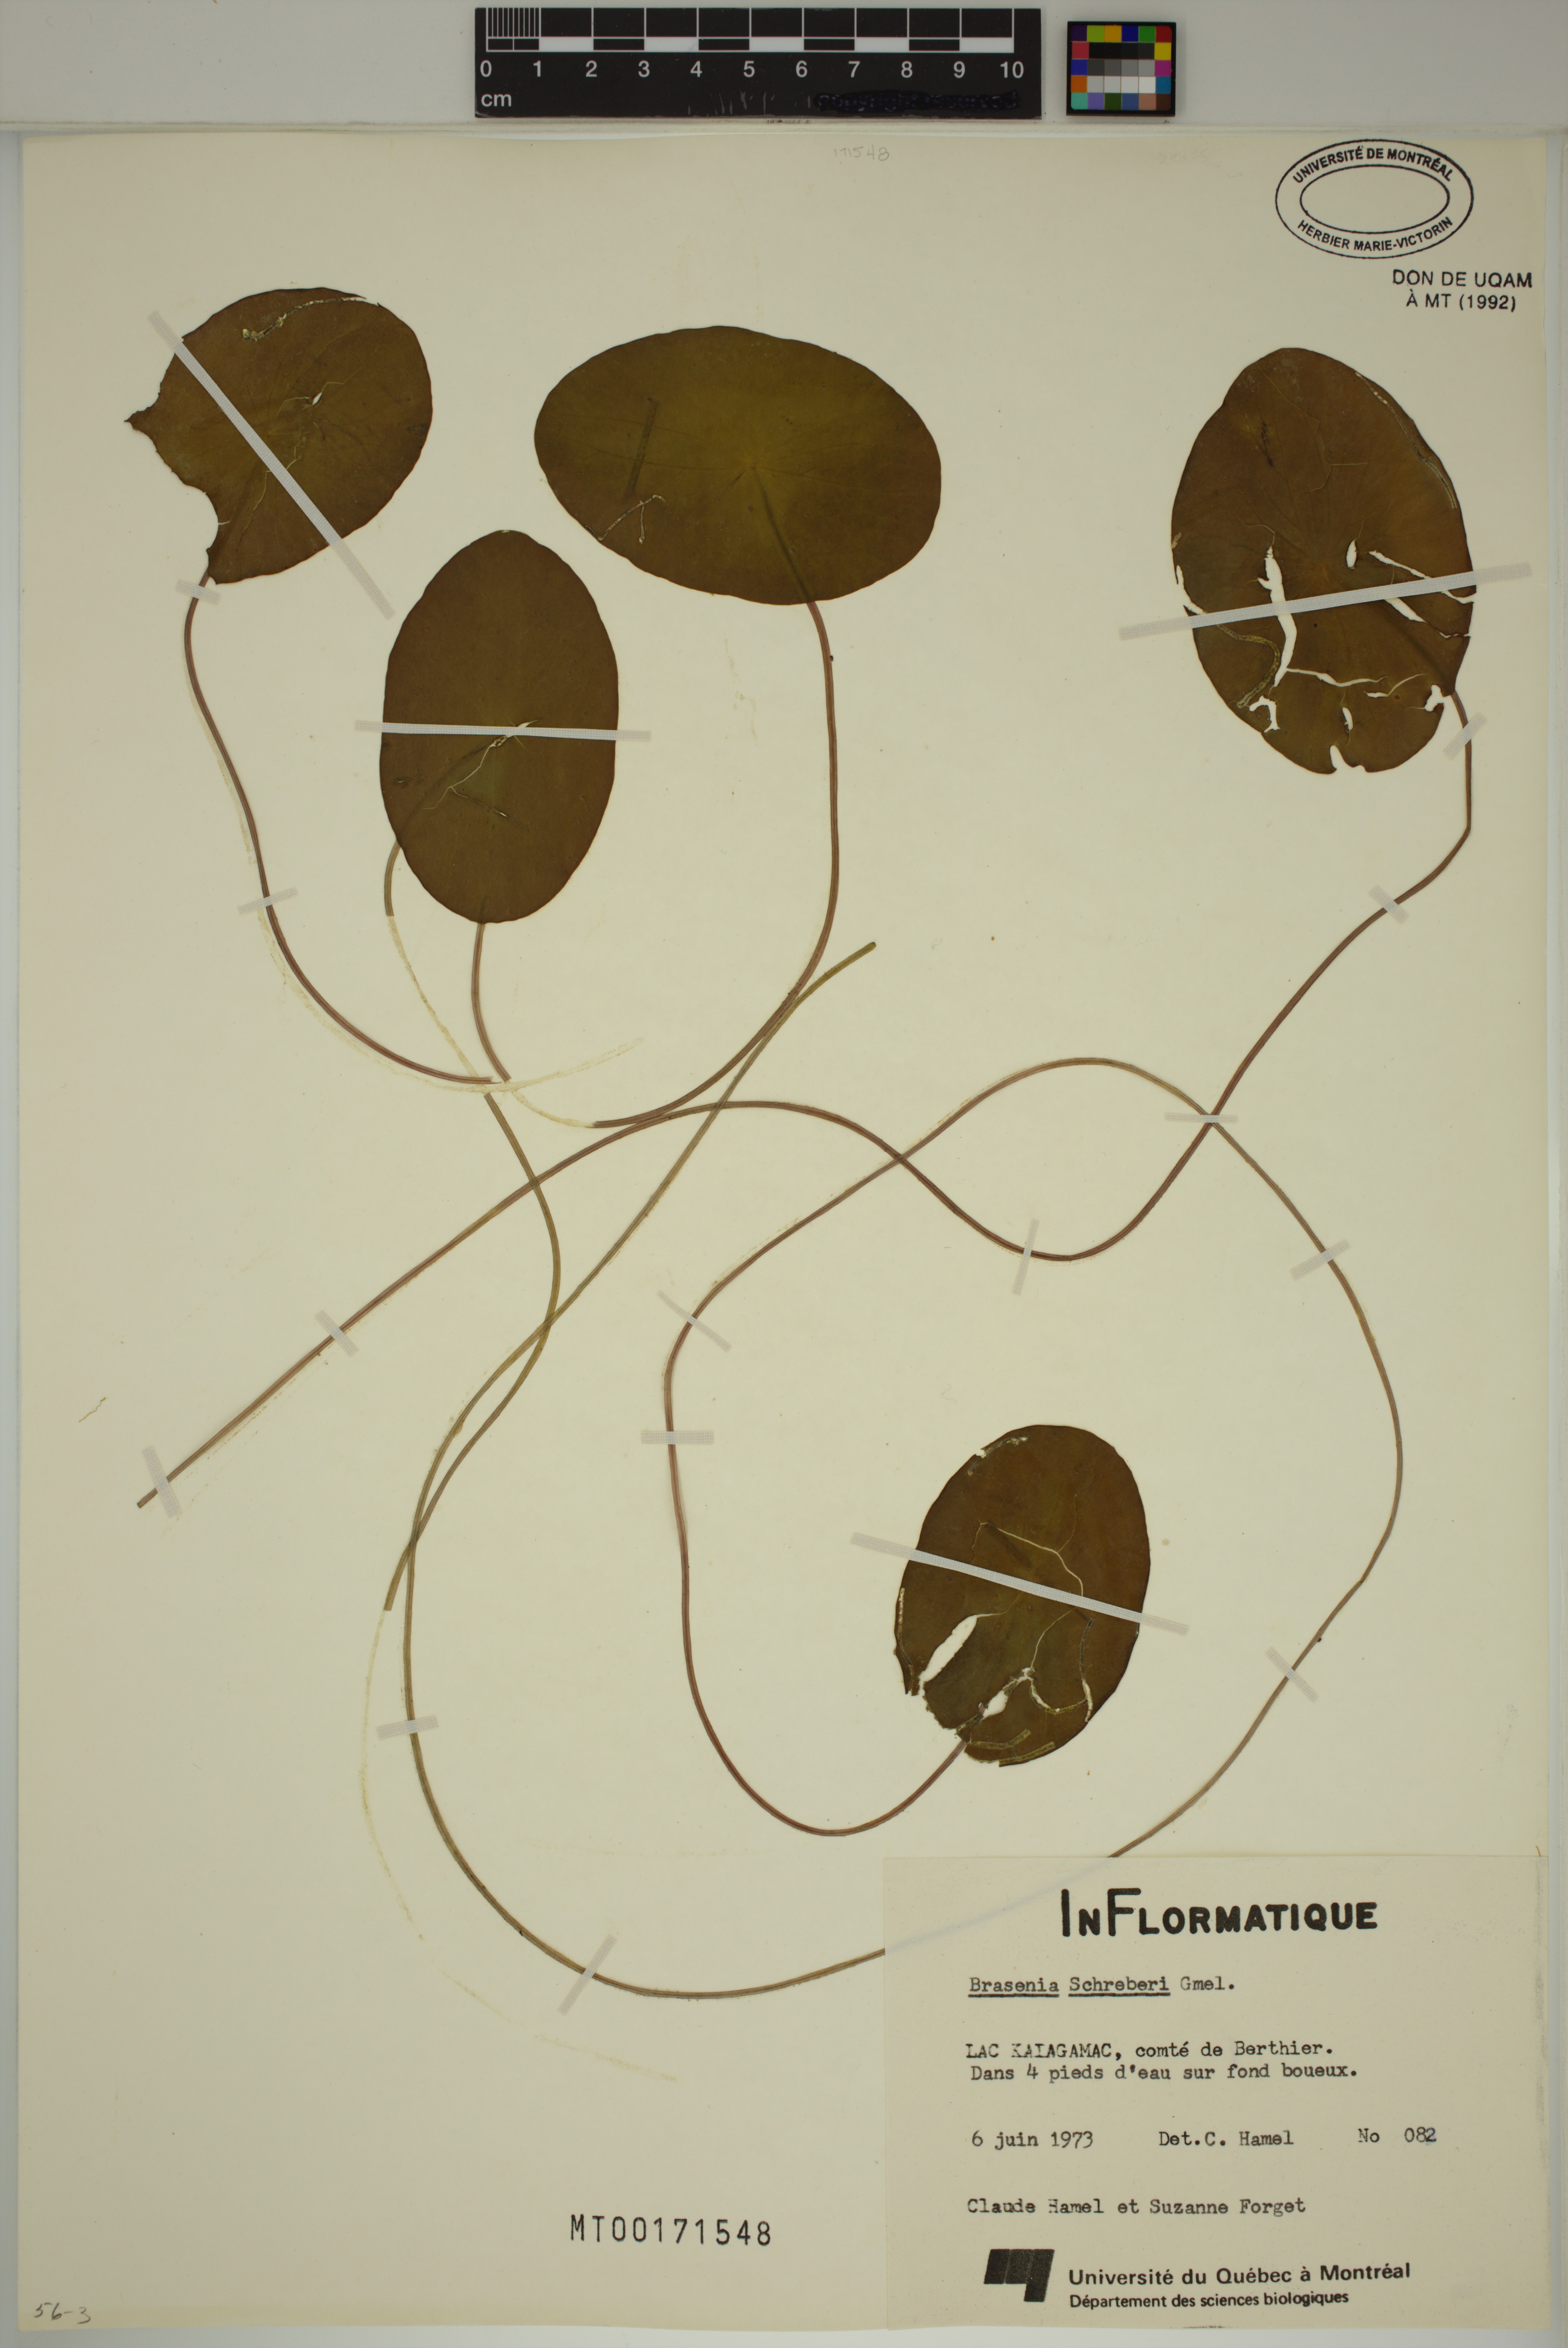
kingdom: Plantae
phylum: Tracheophyta
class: Magnoliopsida
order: Nymphaeales
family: Cabombaceae
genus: Brasenia
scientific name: Brasenia schreberi
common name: Water-shield
